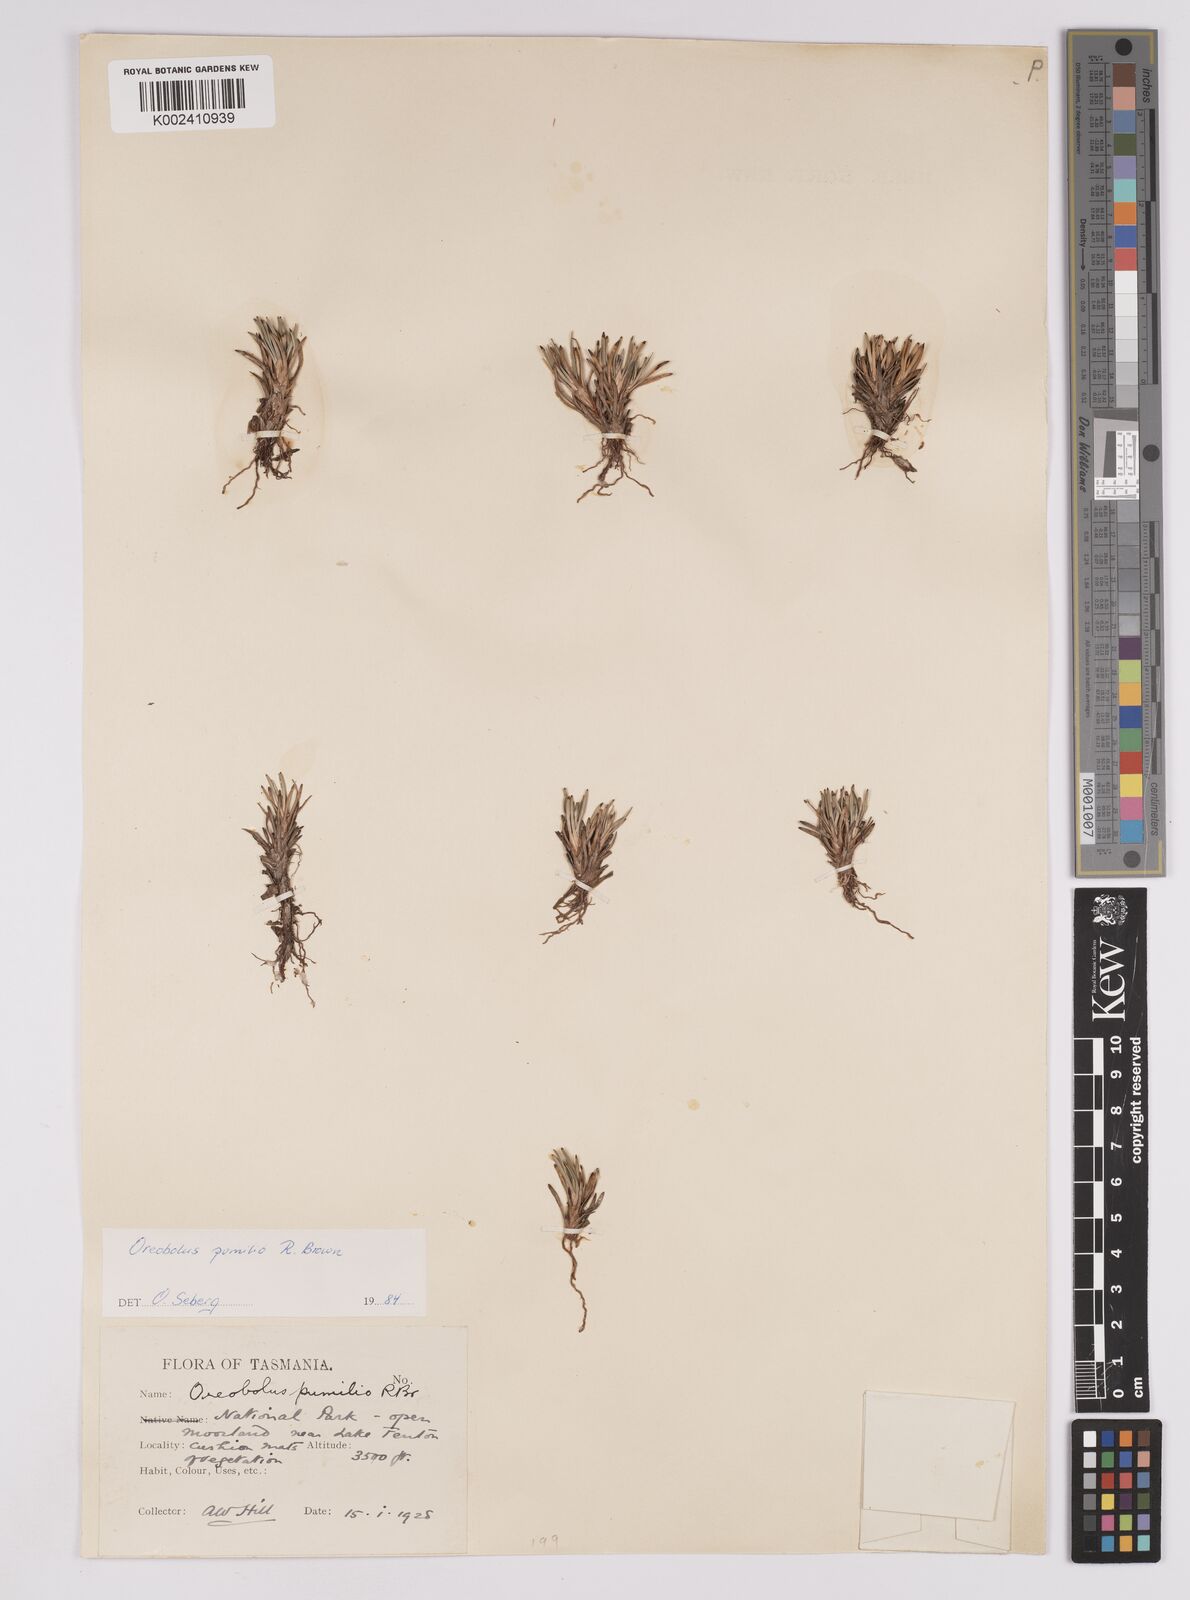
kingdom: Plantae
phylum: Tracheophyta
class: Liliopsida
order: Poales
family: Cyperaceae
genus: Oreobolus
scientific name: Oreobolus pumilio
